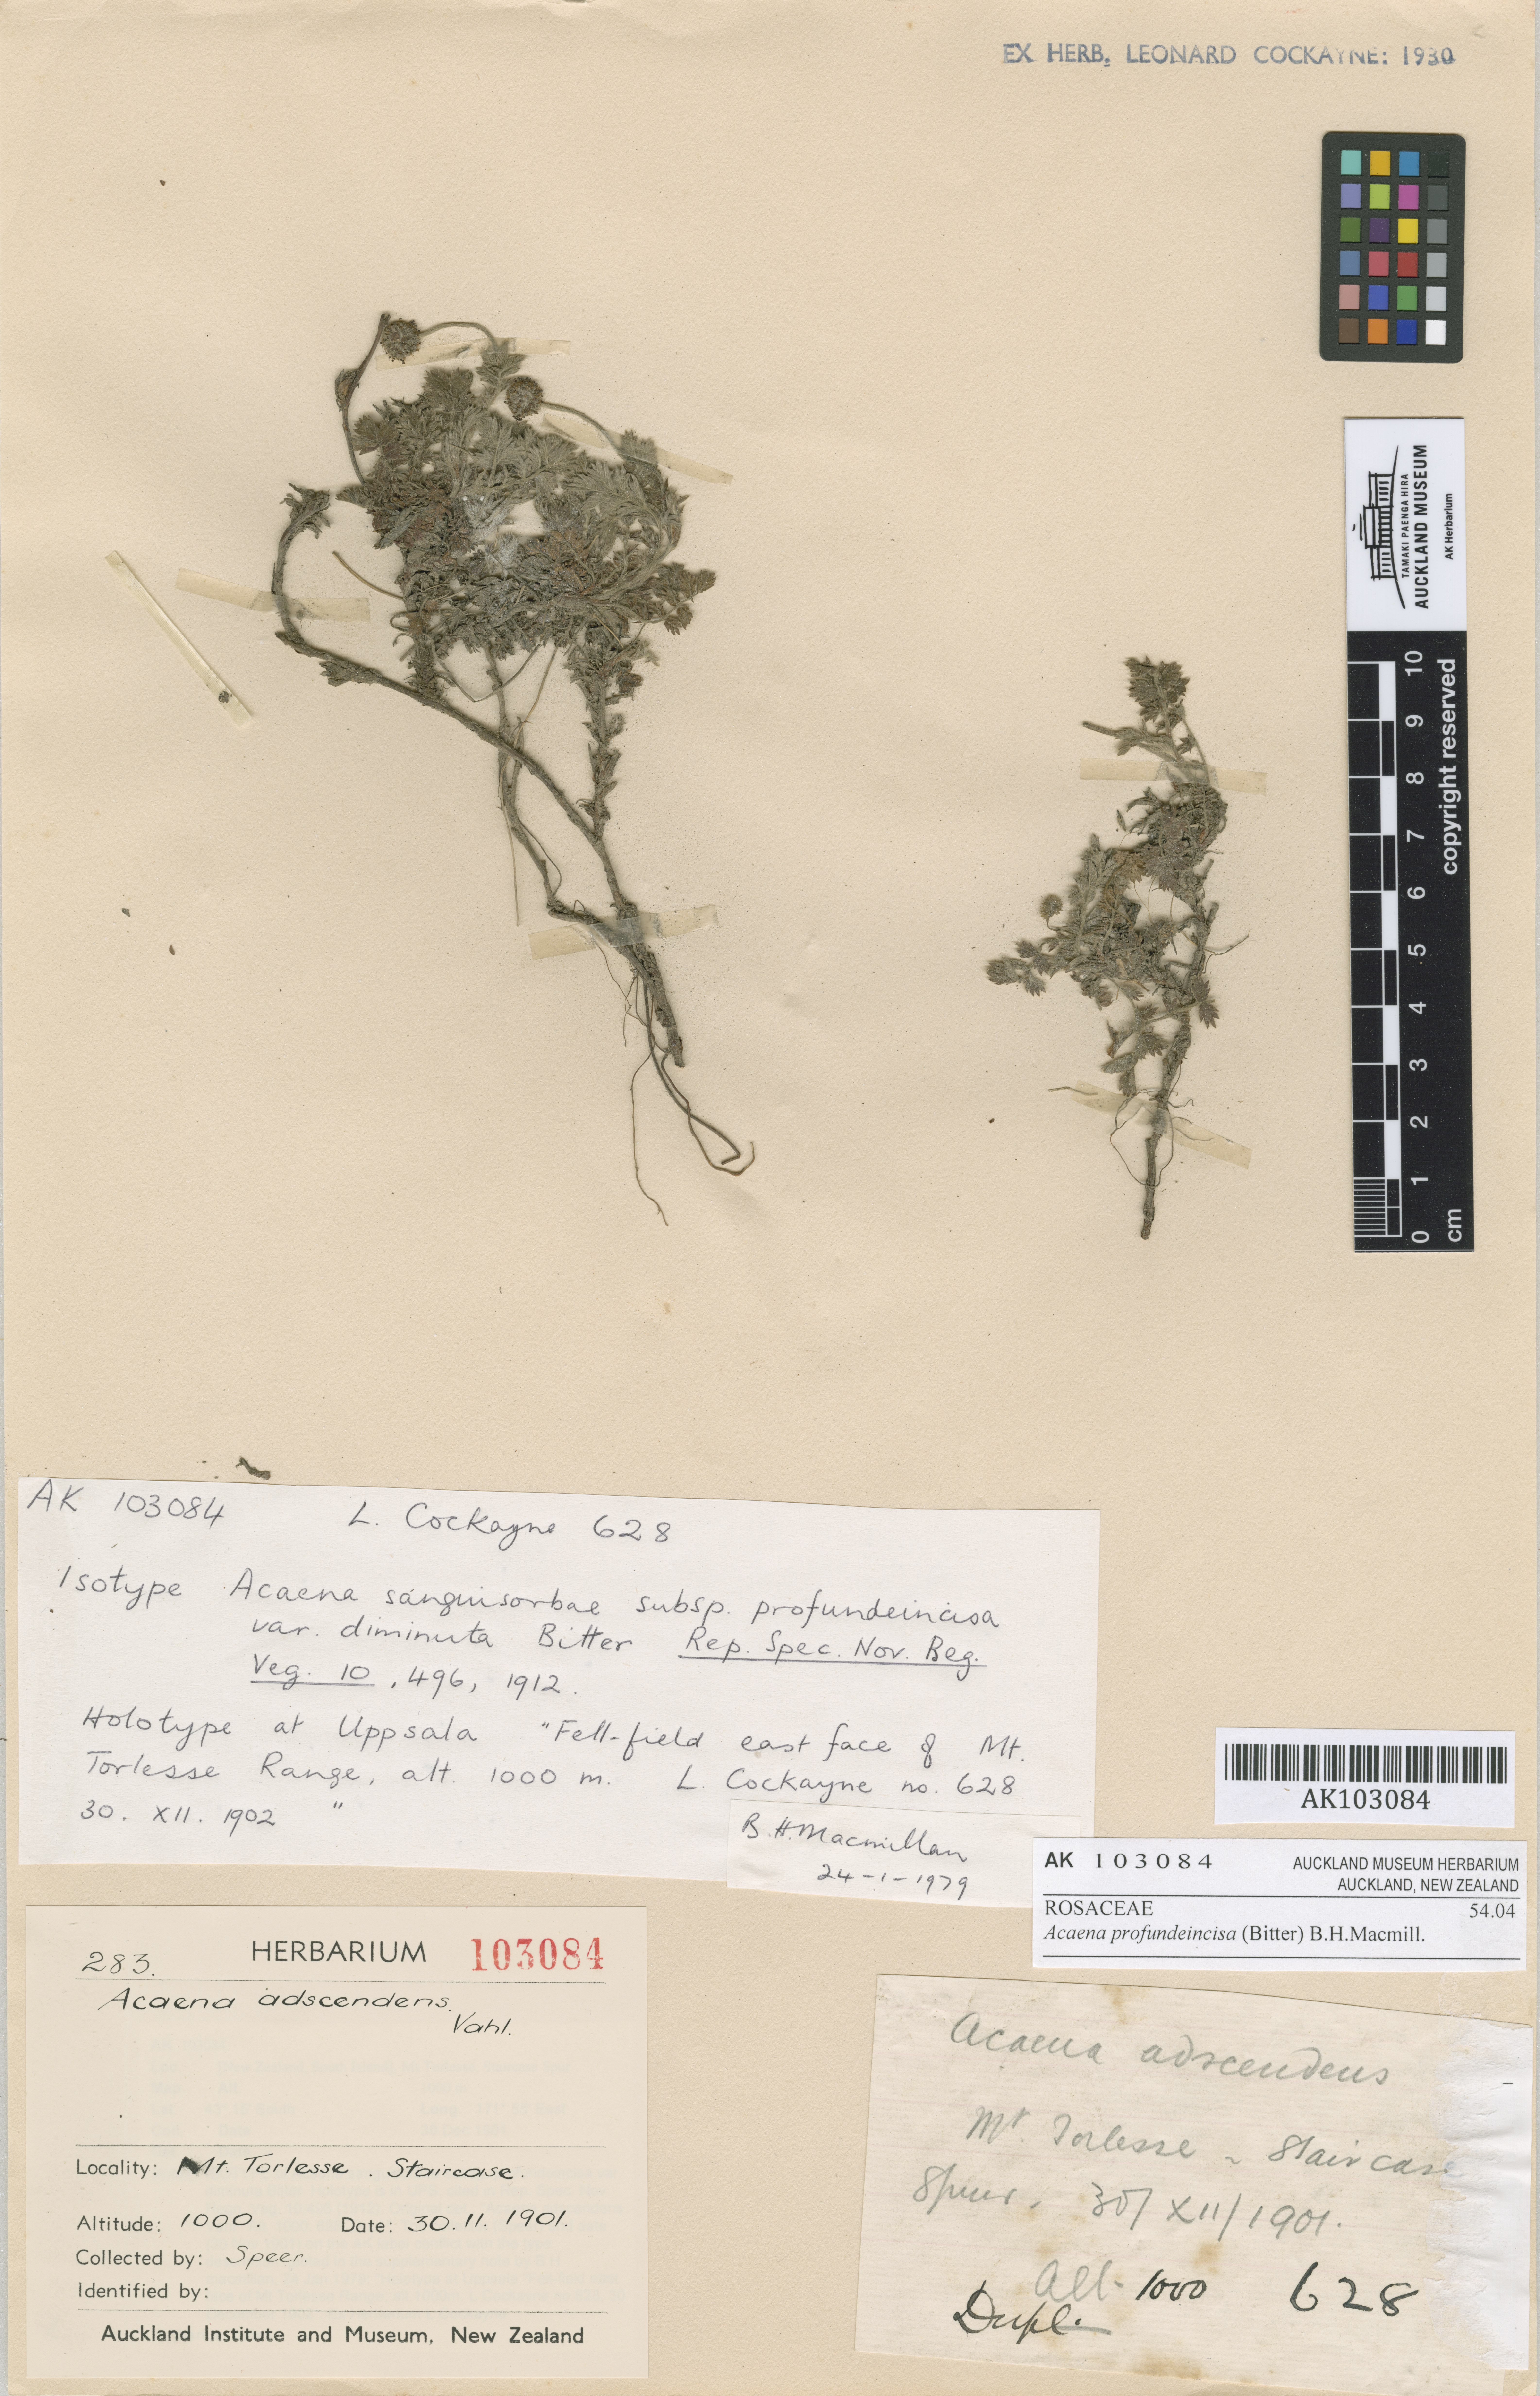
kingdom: Plantae
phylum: Tracheophyta
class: Magnoliopsida
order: Rosales
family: Rosaceae
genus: Acaena
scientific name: Acaena profundeincisa
